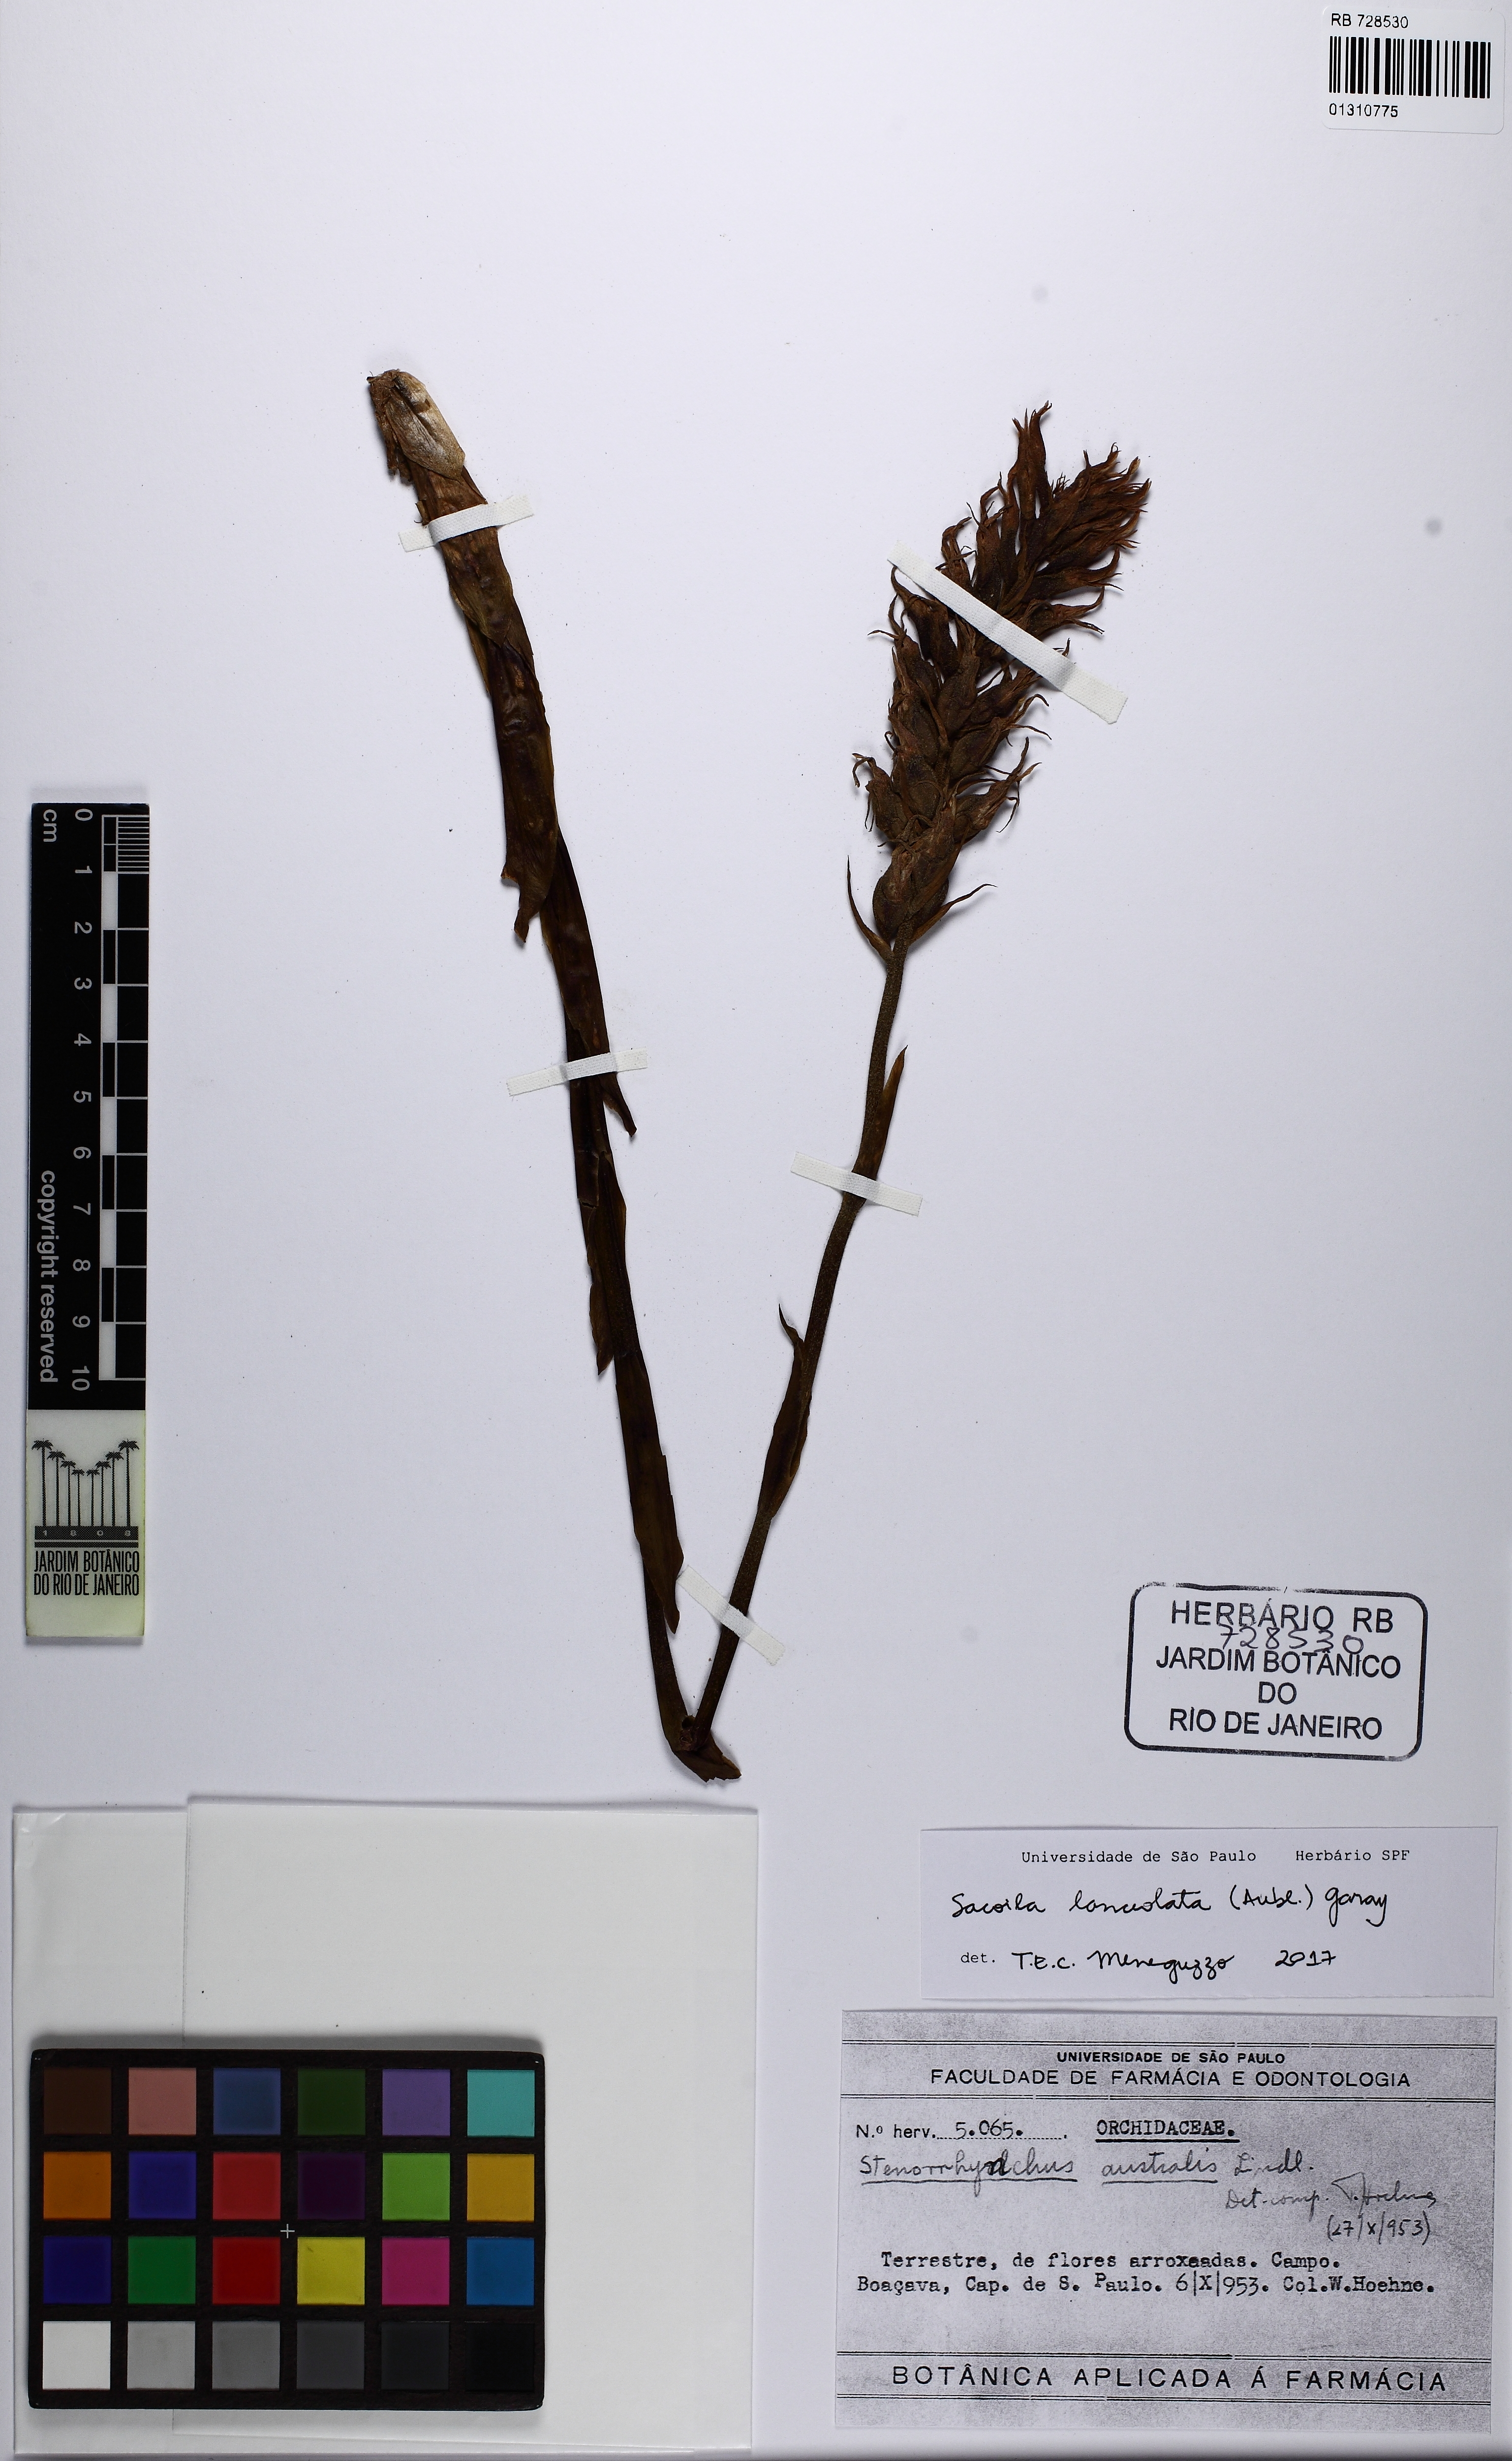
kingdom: Plantae
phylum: Tracheophyta
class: Liliopsida
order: Asparagales
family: Orchidaceae
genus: Sacoila
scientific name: Sacoila lanceolata
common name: Leafless beaked ladiestresses
